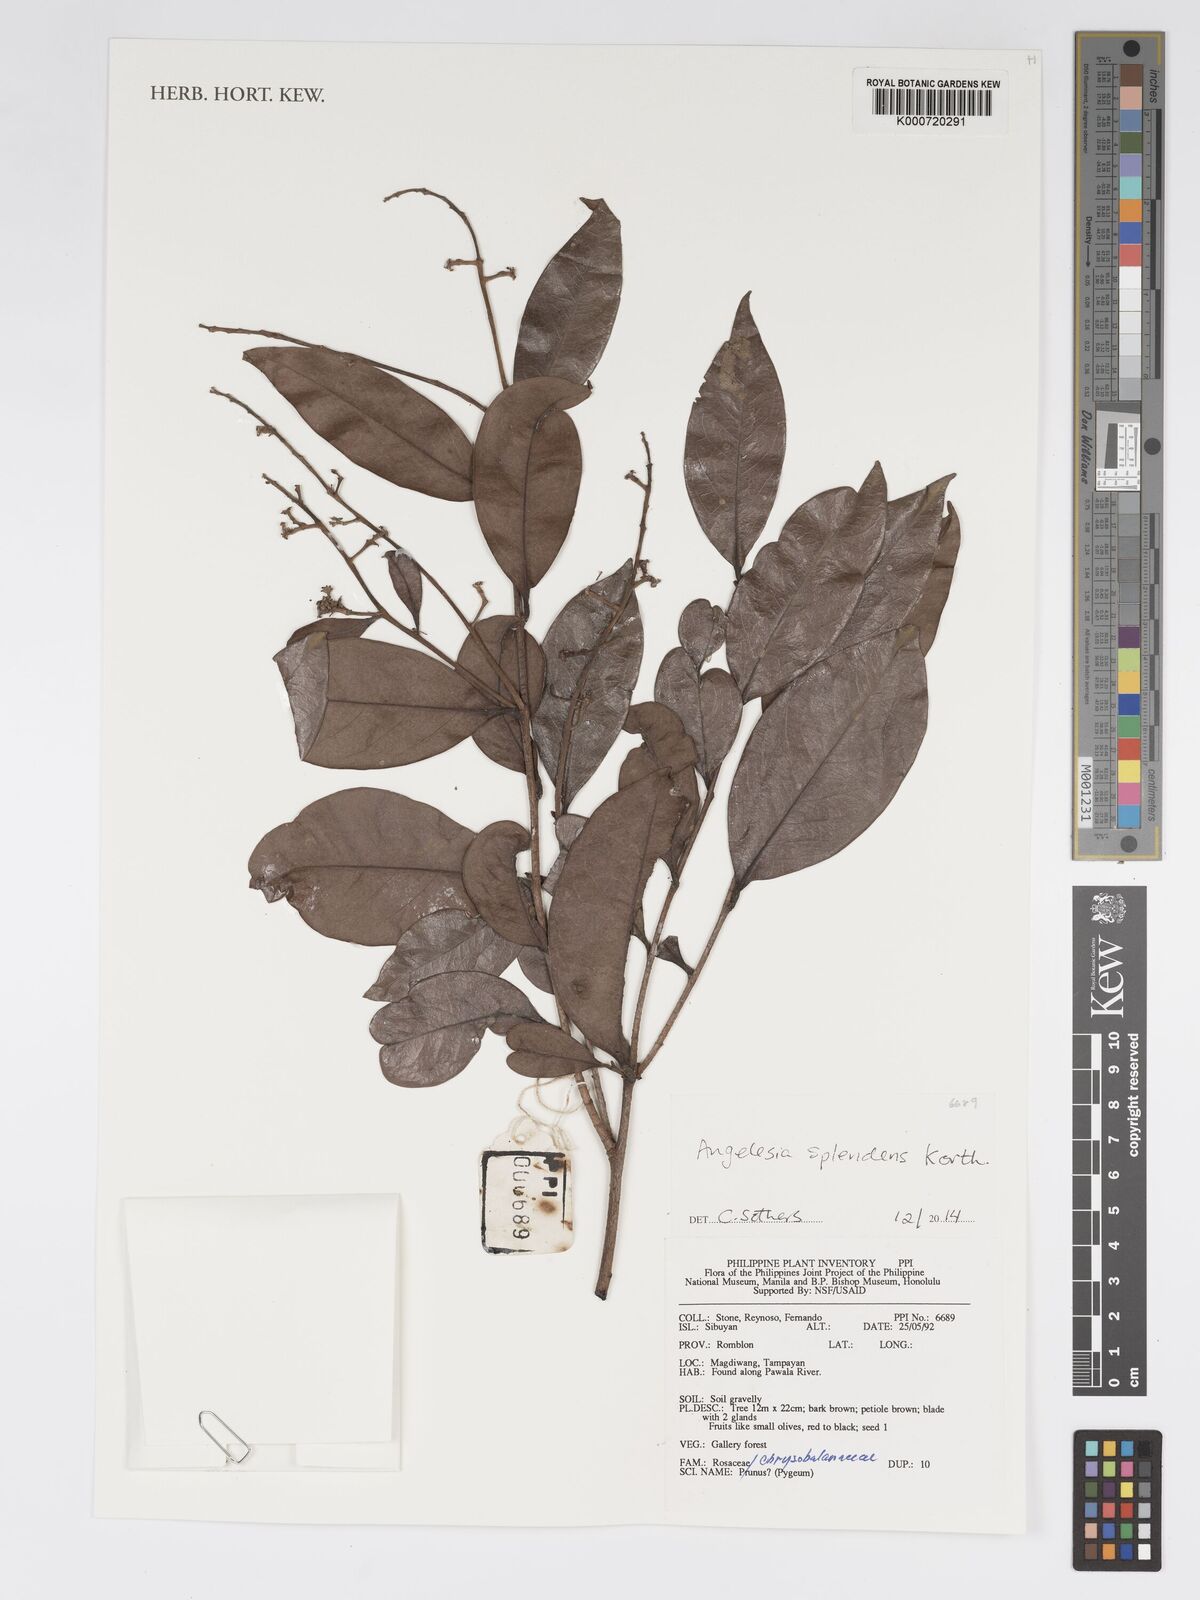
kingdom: Plantae
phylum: Tracheophyta
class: Magnoliopsida
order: Malpighiales
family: Chrysobalanaceae
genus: Angelesia
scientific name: Angelesia splendens
